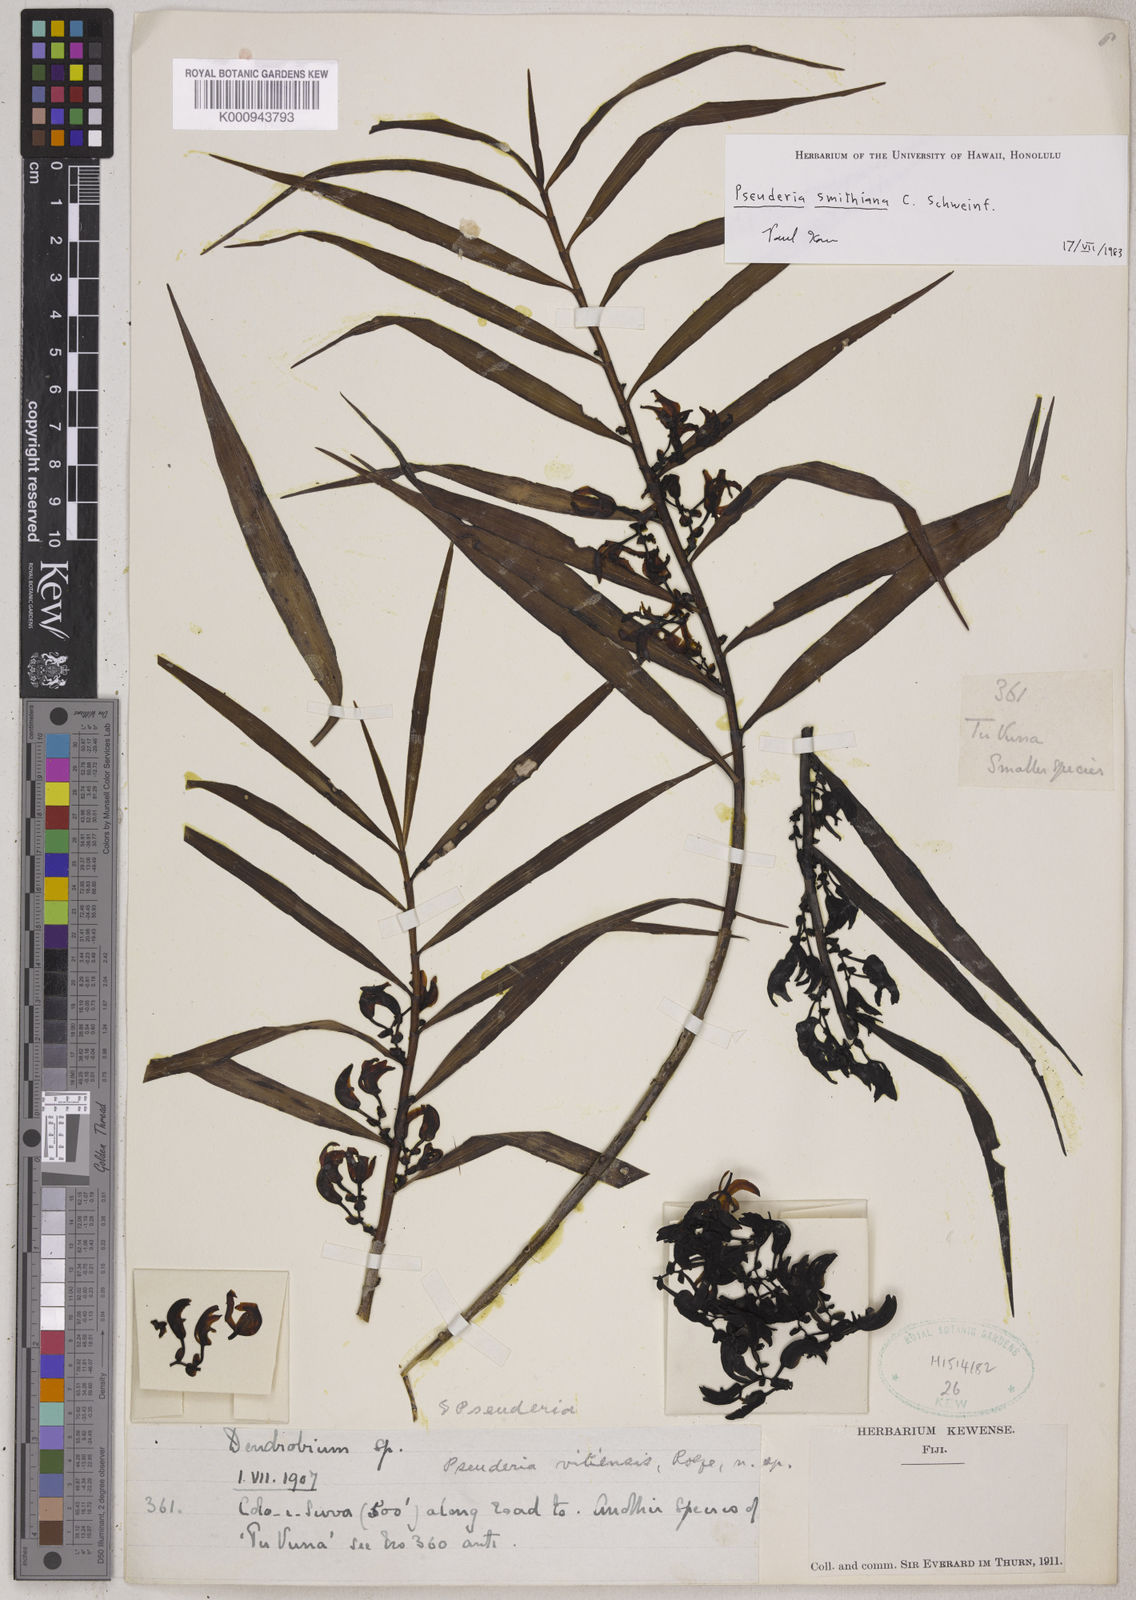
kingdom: Plantae
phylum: Tracheophyta
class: Liliopsida
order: Asparagales
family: Orchidaceae
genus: Pseuderia
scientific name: Pseuderia
